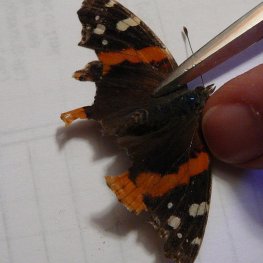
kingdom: Animalia
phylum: Arthropoda
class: Insecta
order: Lepidoptera
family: Nymphalidae
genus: Vanessa
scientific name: Vanessa atalanta
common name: Red Admiral
